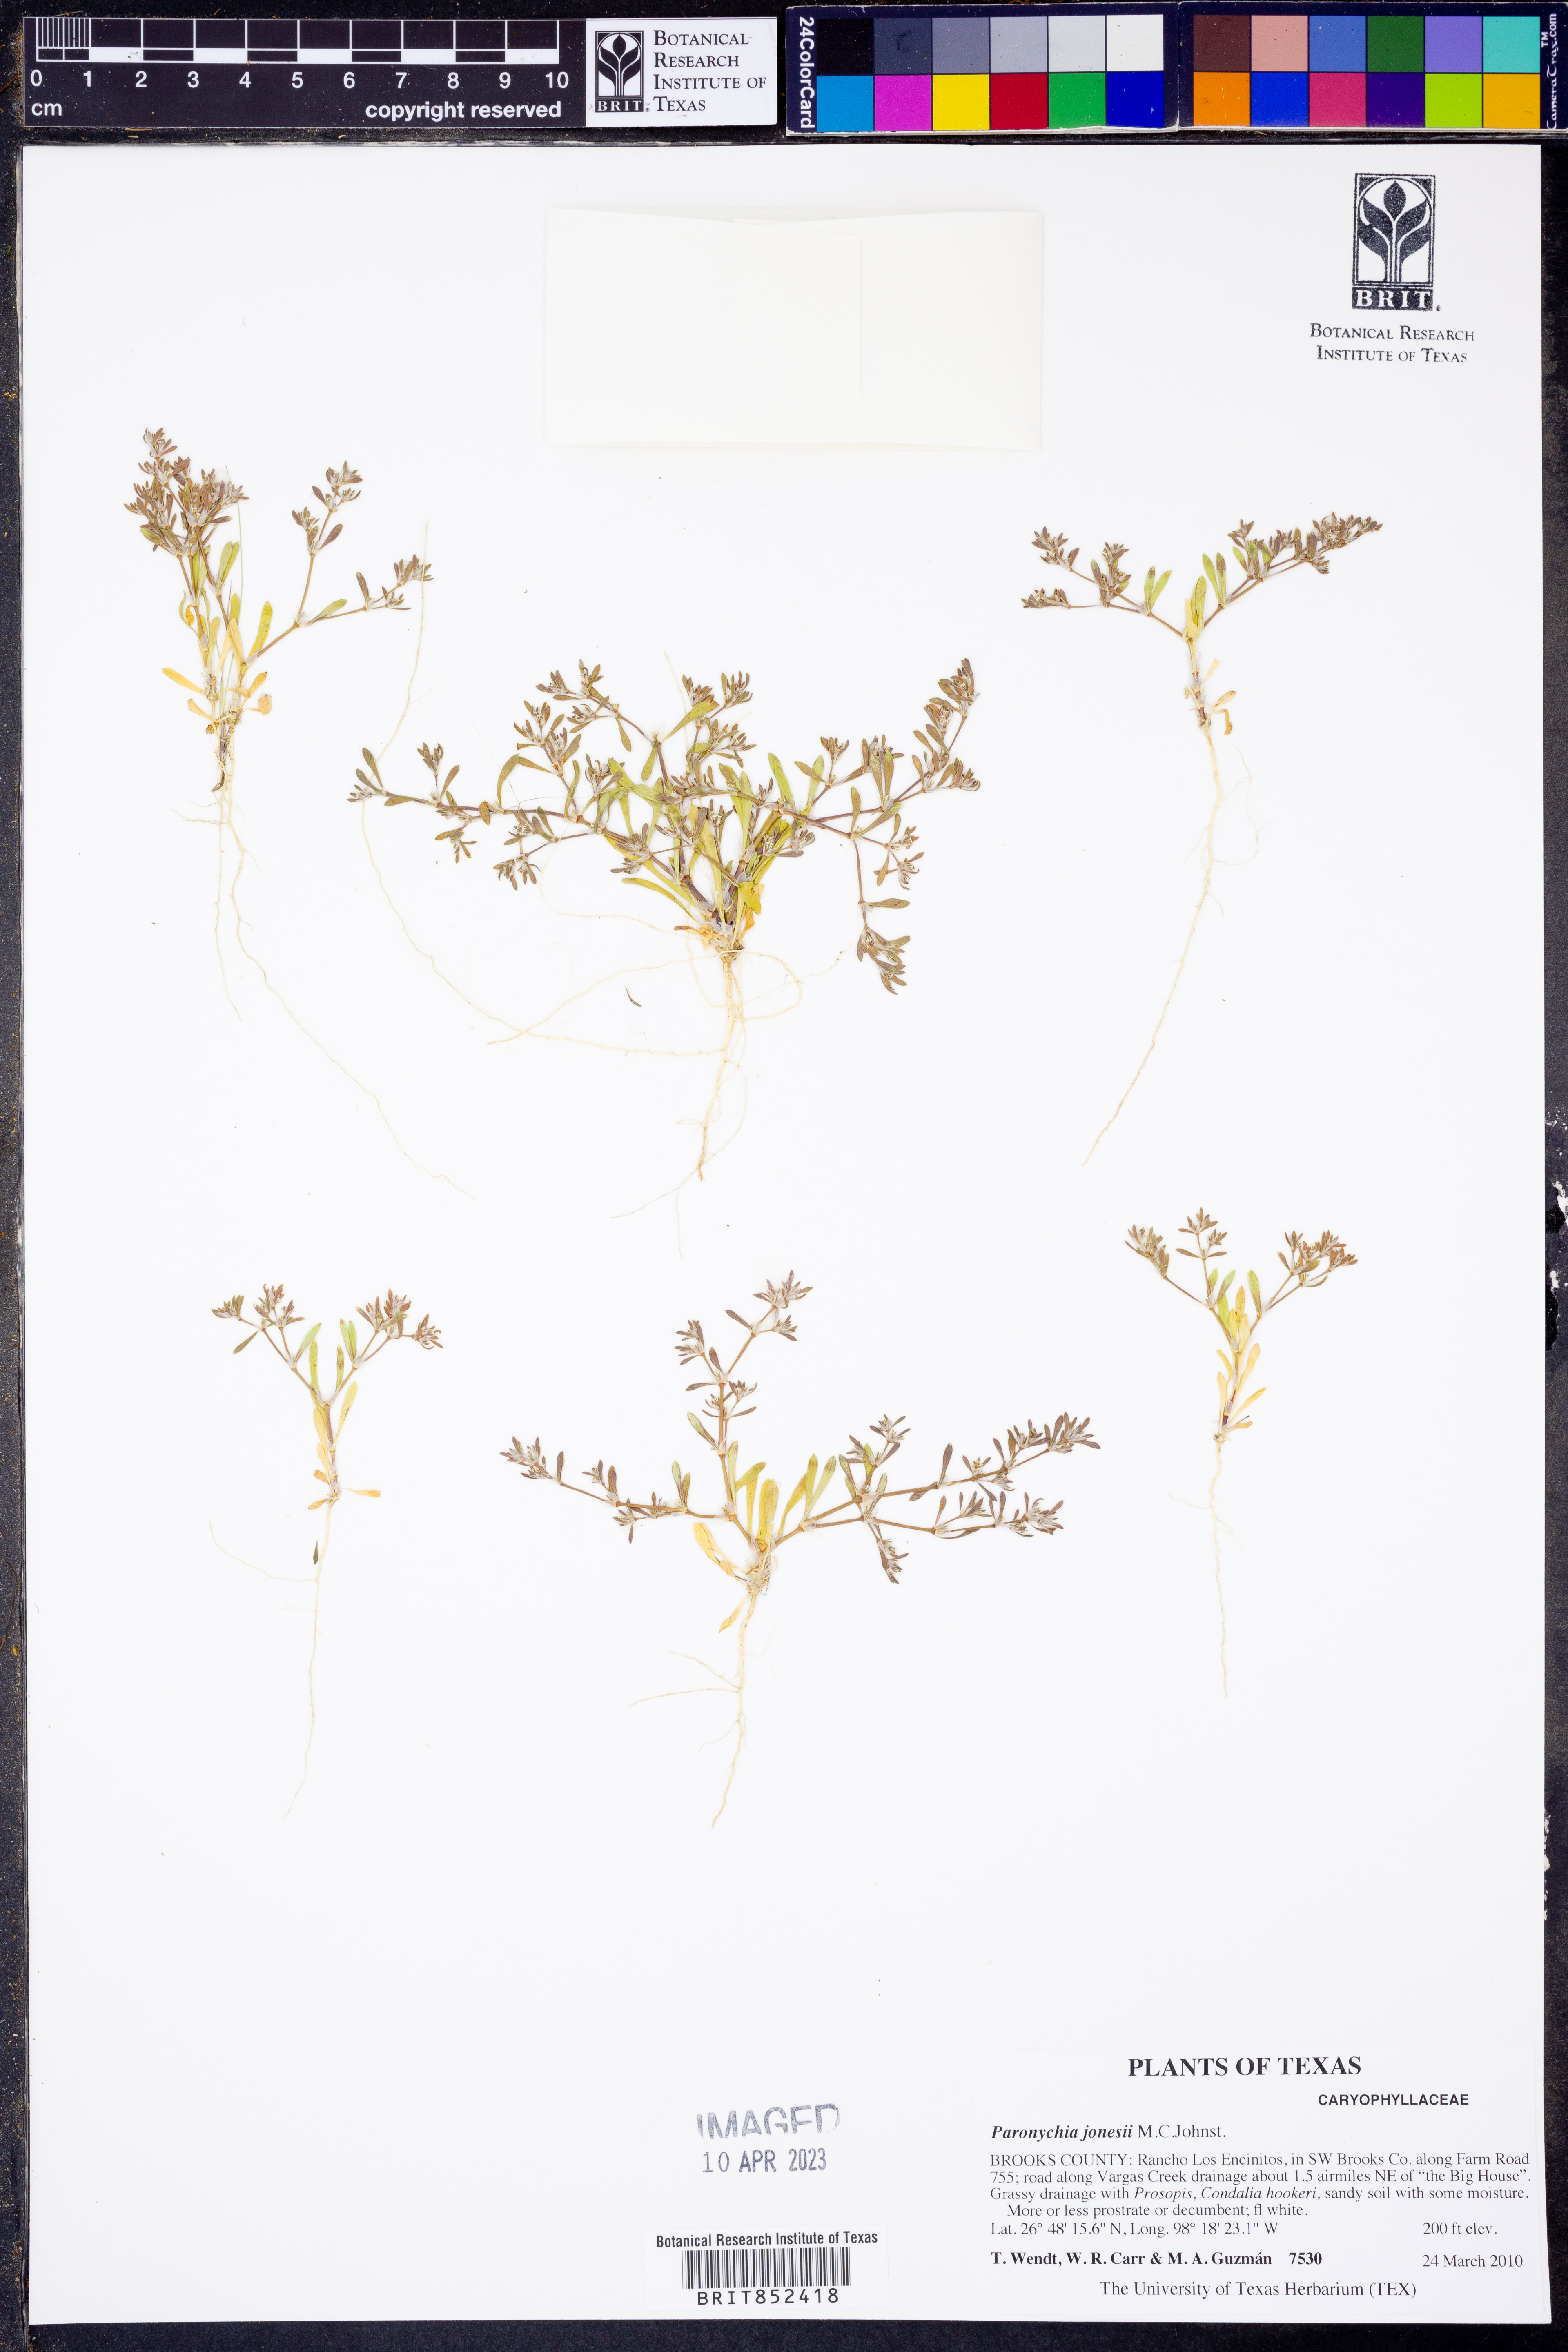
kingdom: Plantae
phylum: Tracheophyta
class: Magnoliopsida
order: Caryophyllales
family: Caryophyllaceae
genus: Paronychia
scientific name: Paronychia jonesii
